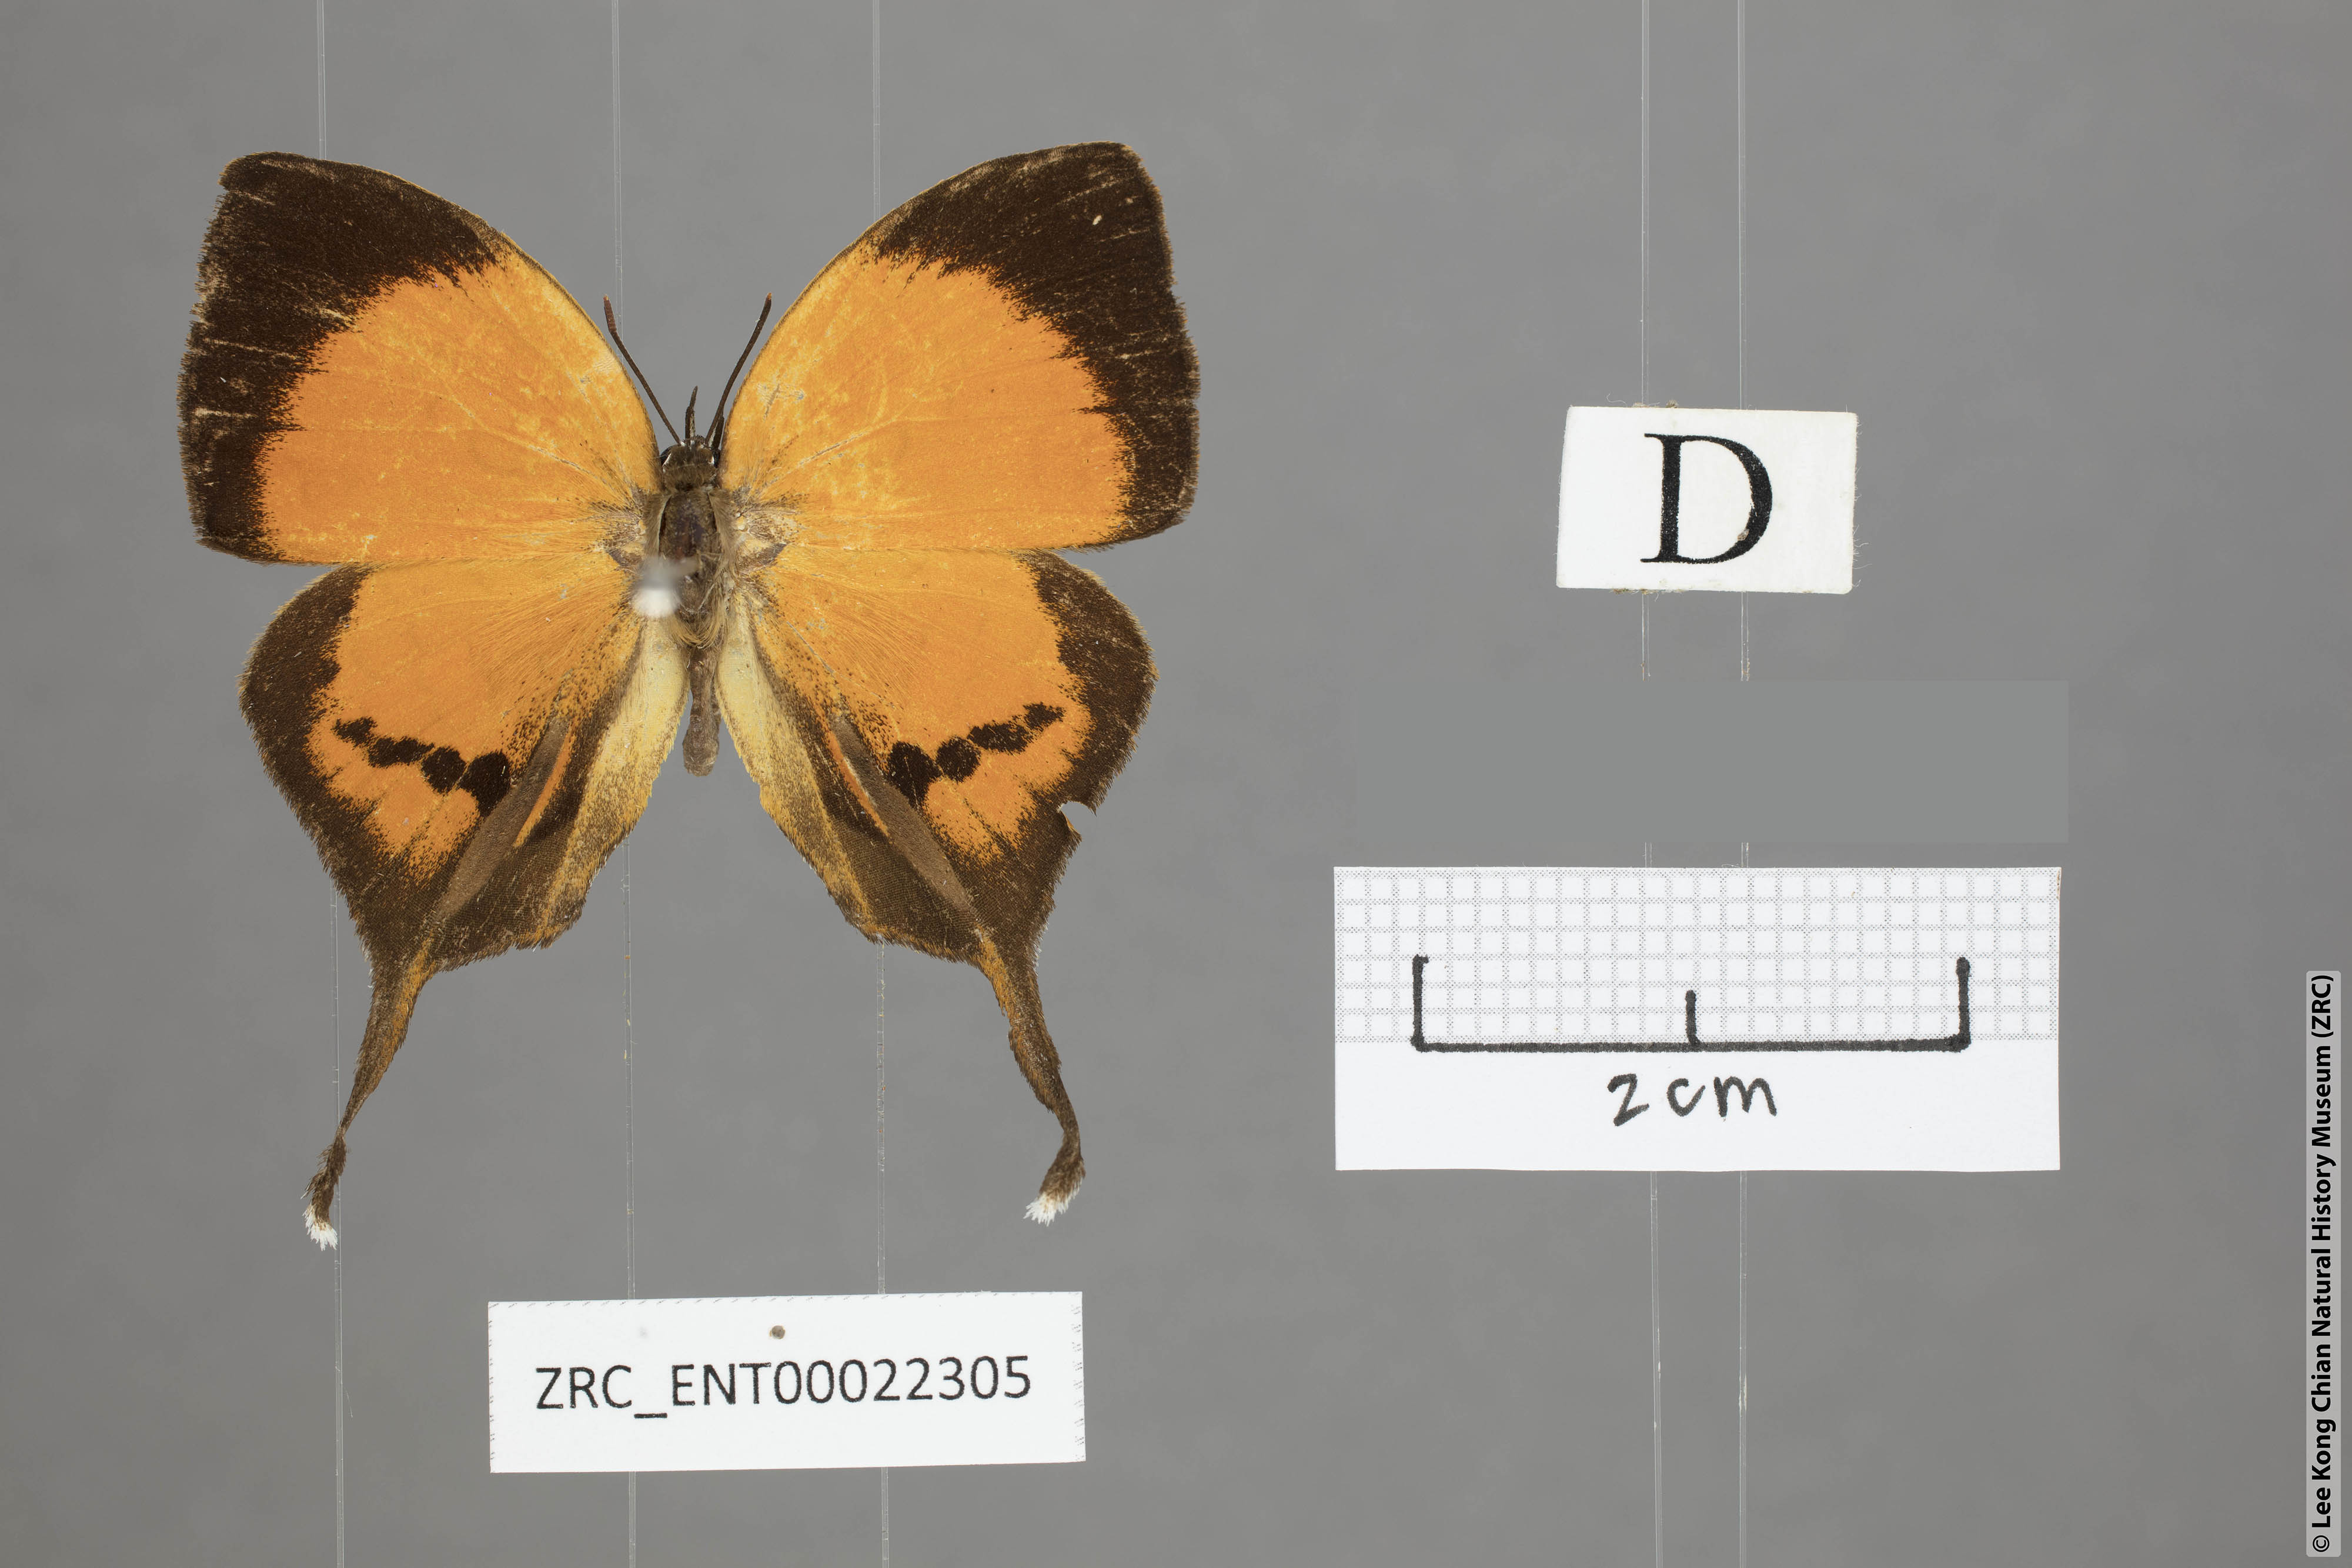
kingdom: Animalia
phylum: Arthropoda
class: Insecta
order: Lepidoptera
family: Lycaenidae
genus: Yasoda
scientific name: Yasoda pitane
